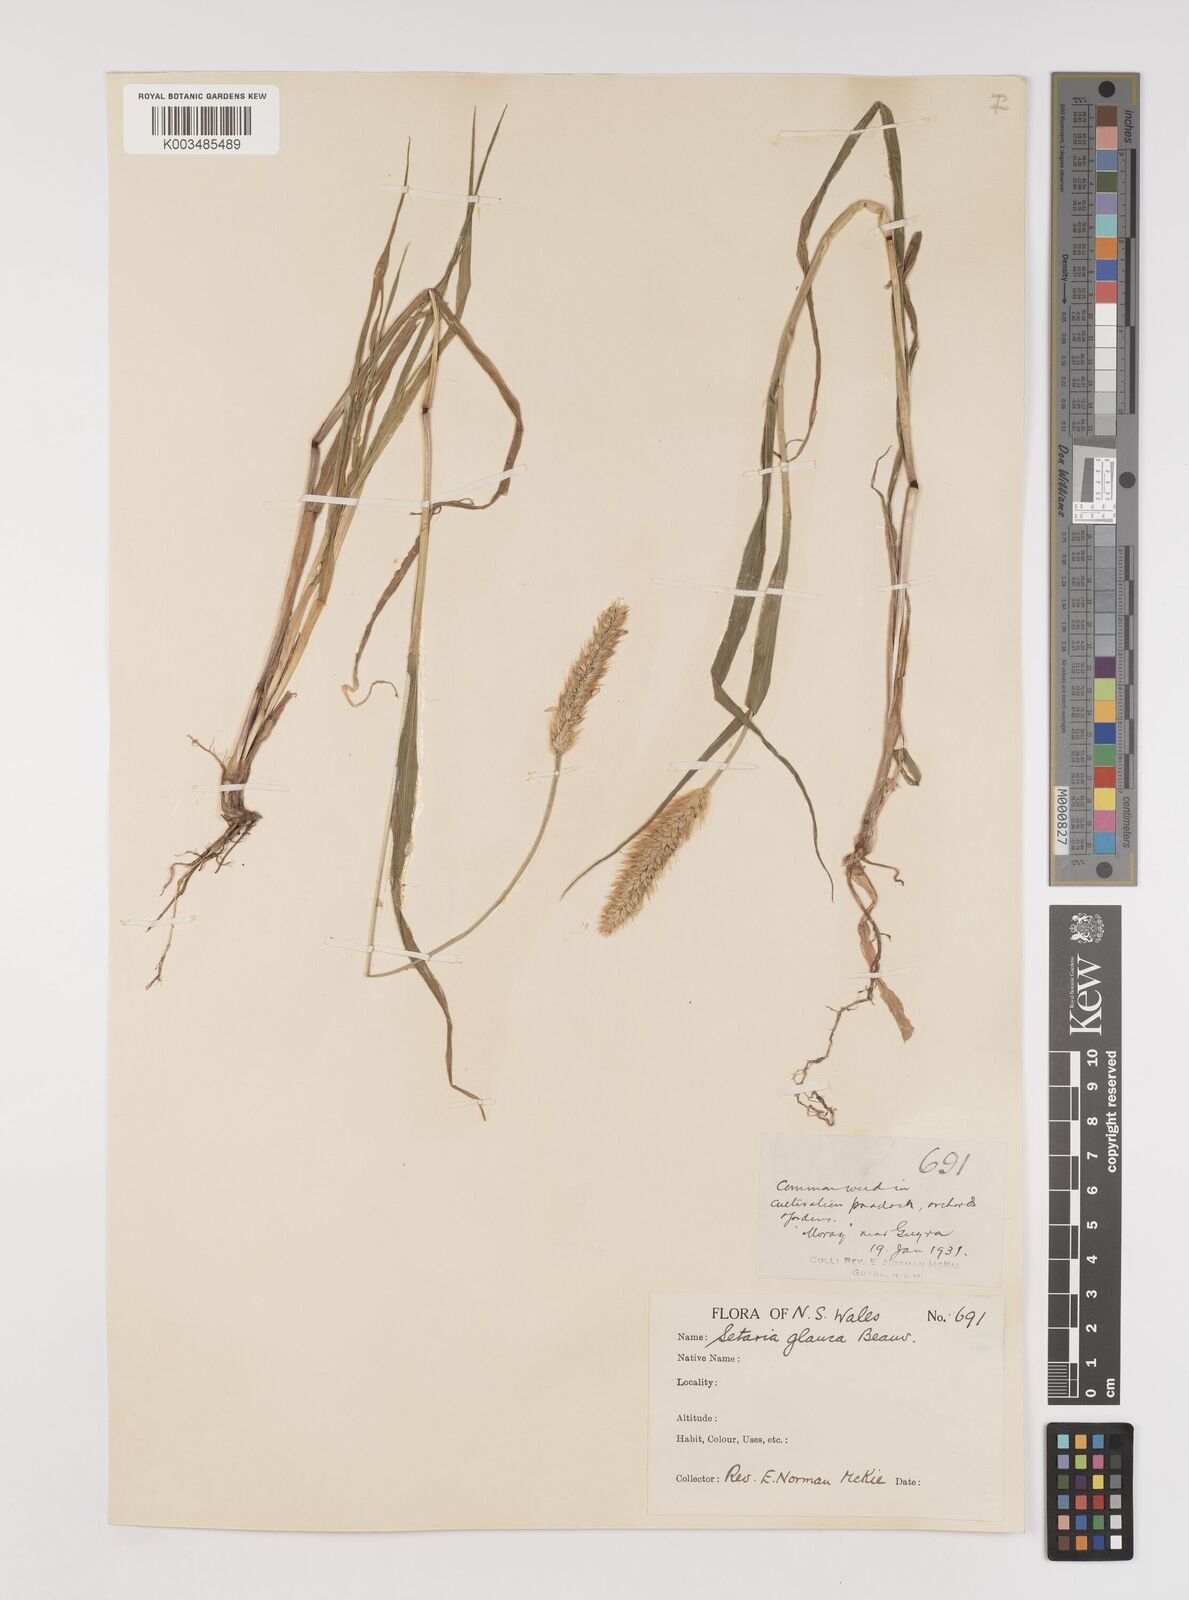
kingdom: Plantae
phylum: Tracheophyta
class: Liliopsida
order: Poales
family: Poaceae
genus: Setaria
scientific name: Setaria pumila
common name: Yellow bristle-grass
